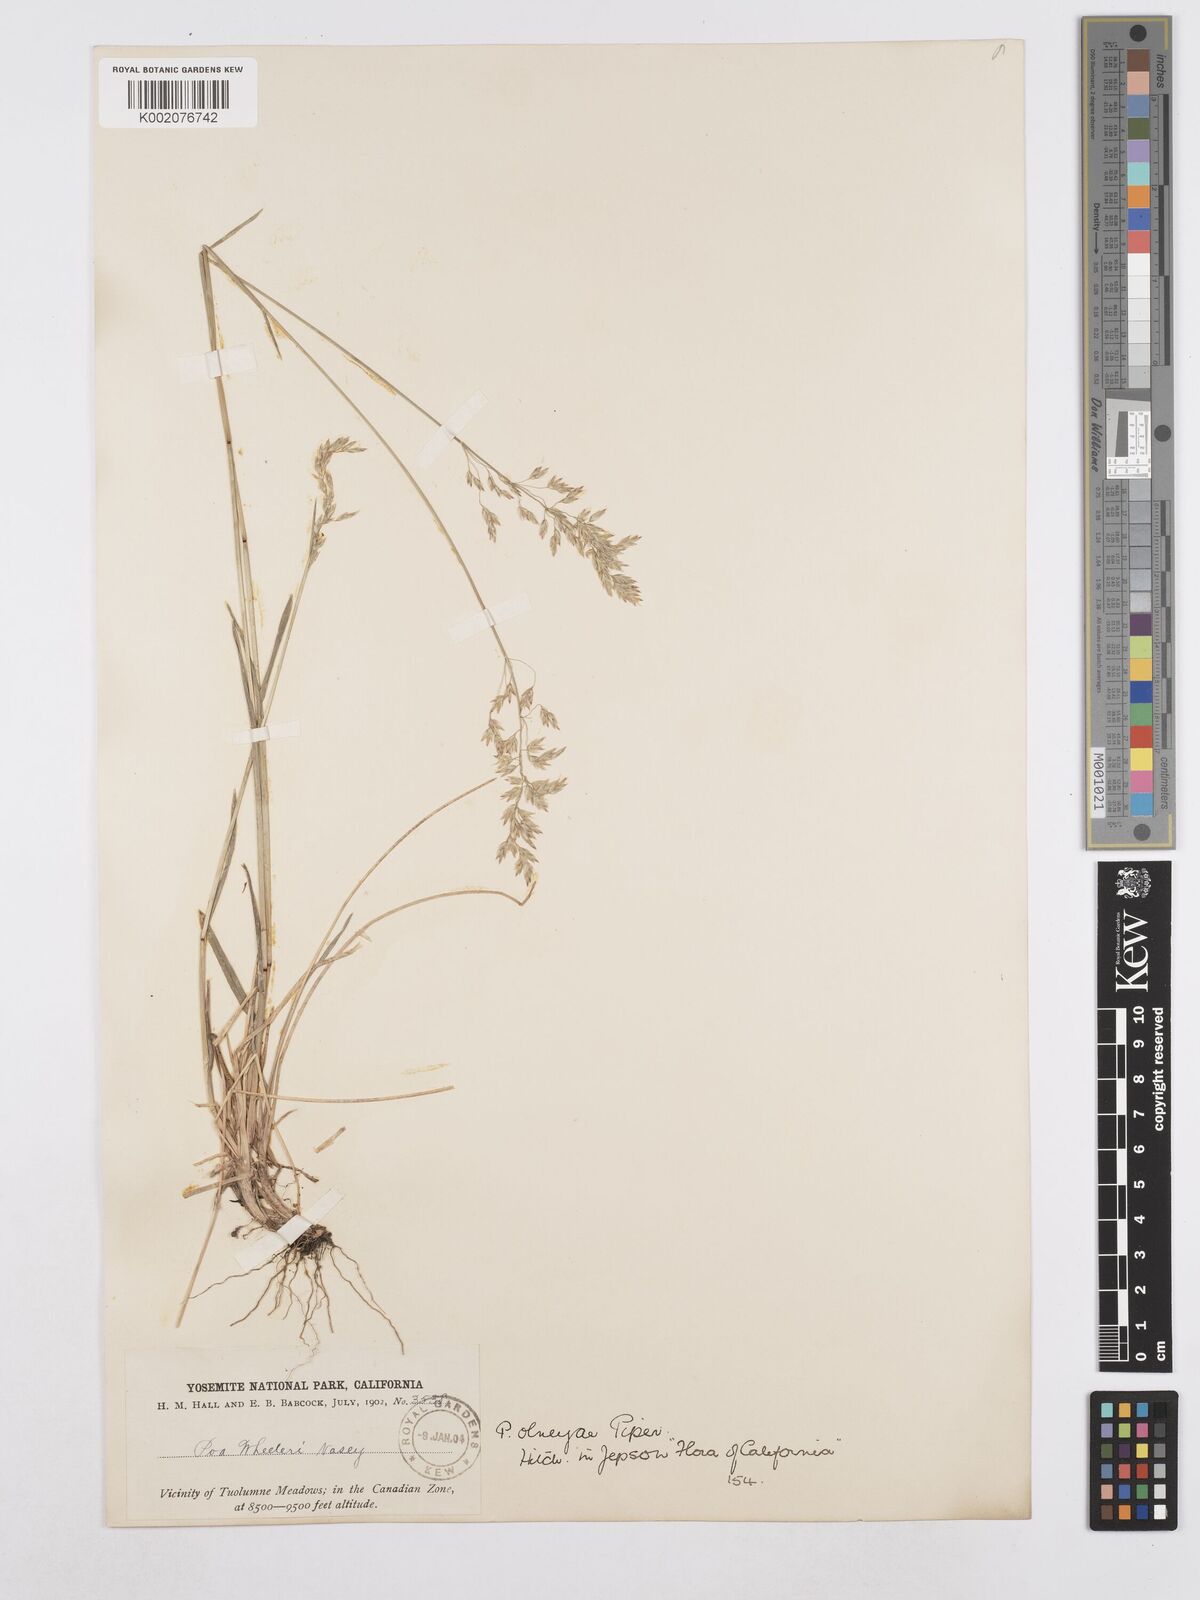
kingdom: Plantae
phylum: Tracheophyta
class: Liliopsida
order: Poales
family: Poaceae
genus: Poa
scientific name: Poa wheeleri
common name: Wheeler's bluegrass
